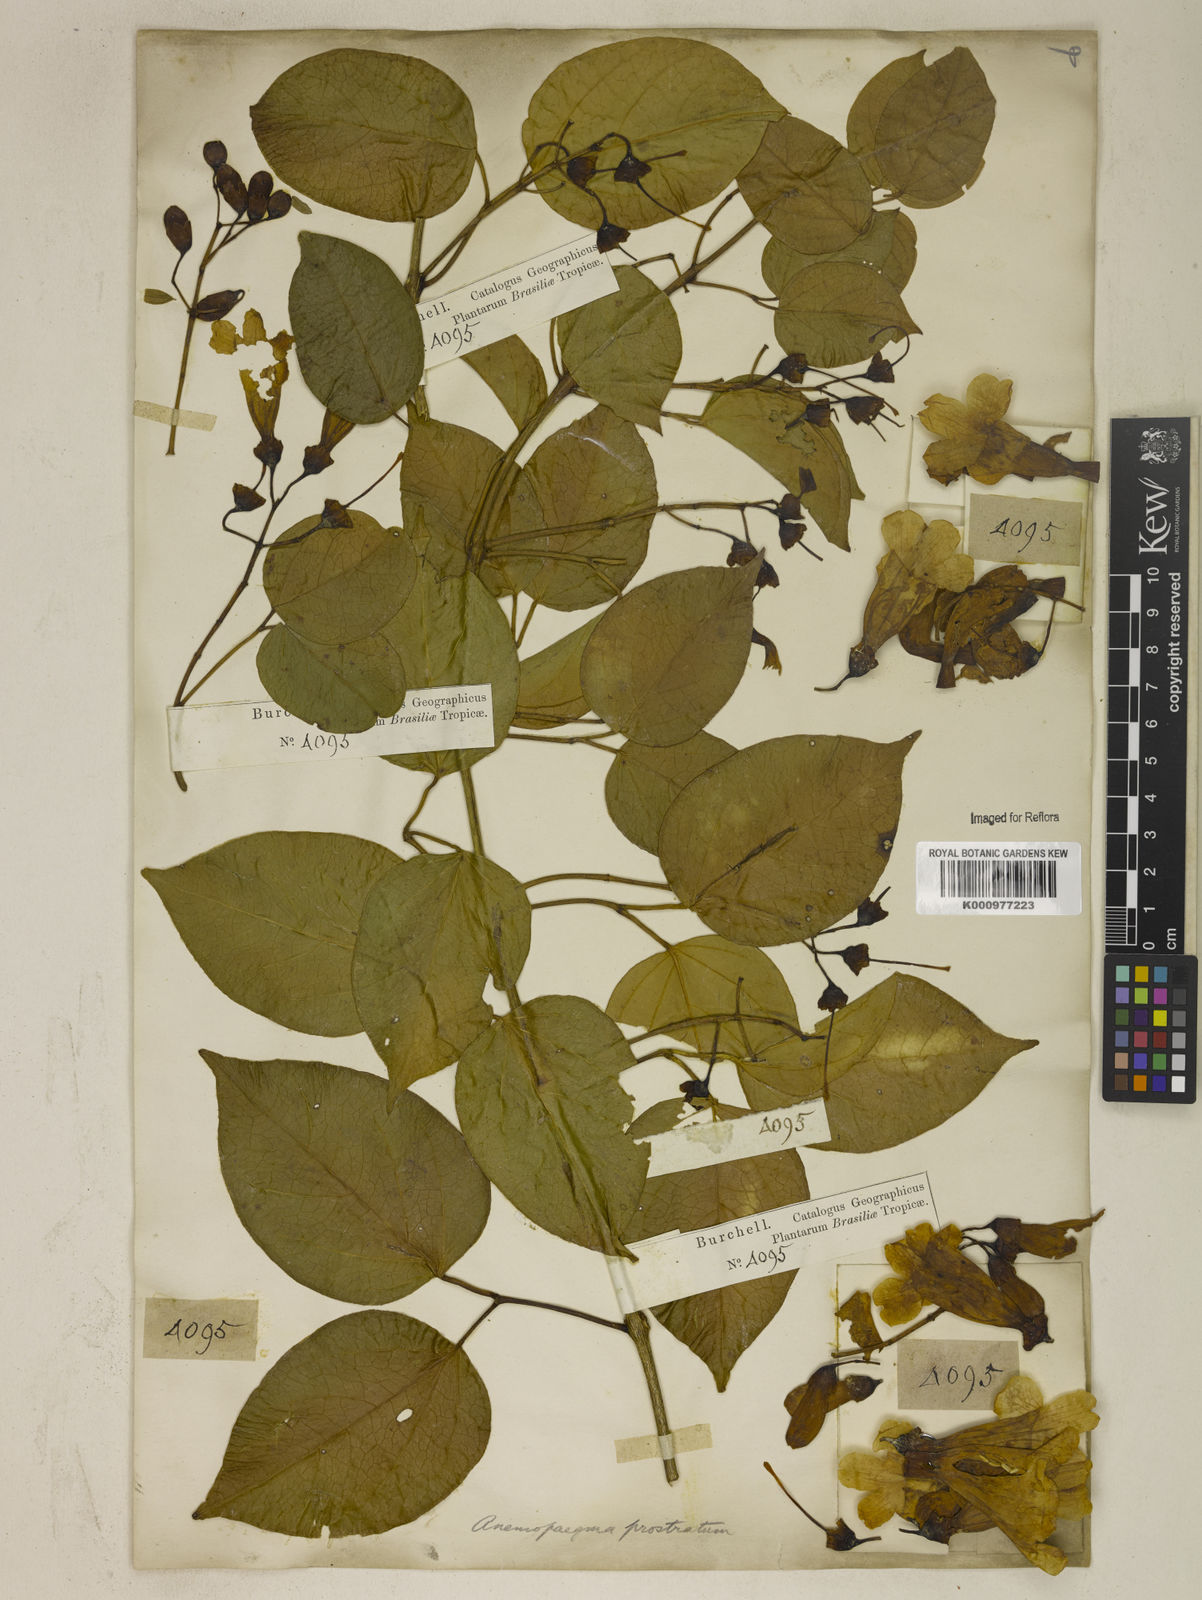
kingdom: Plantae
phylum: Tracheophyta
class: Magnoliopsida
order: Lamiales
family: Bignoniaceae
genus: Anemopaegma
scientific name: Anemopaegma prostratum
